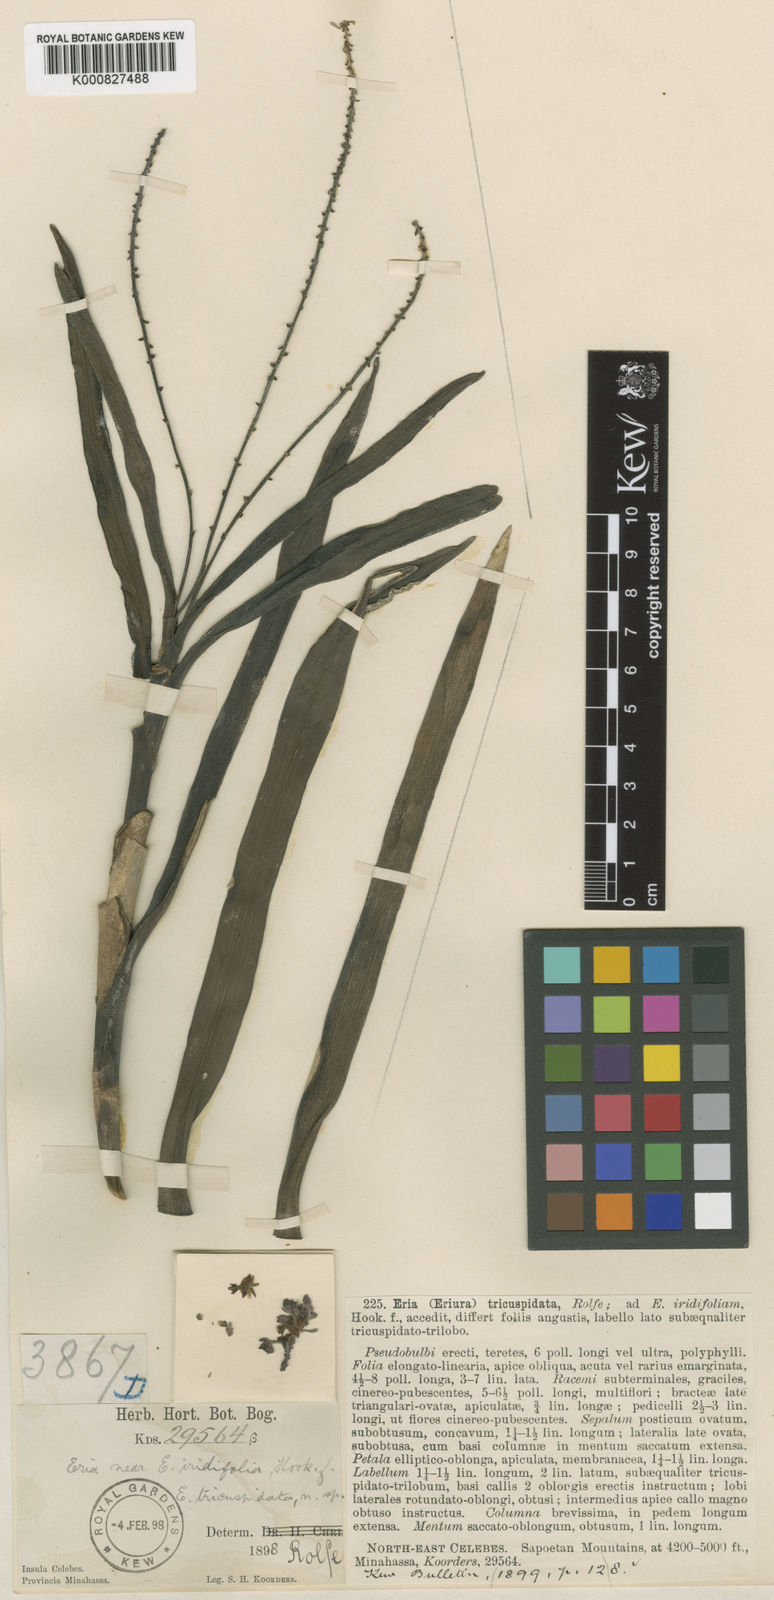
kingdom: Plantae
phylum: Tracheophyta
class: Liliopsida
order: Asparagales
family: Orchidaceae
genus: Mycaranthes
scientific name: Mycaranthes tricuspidata
